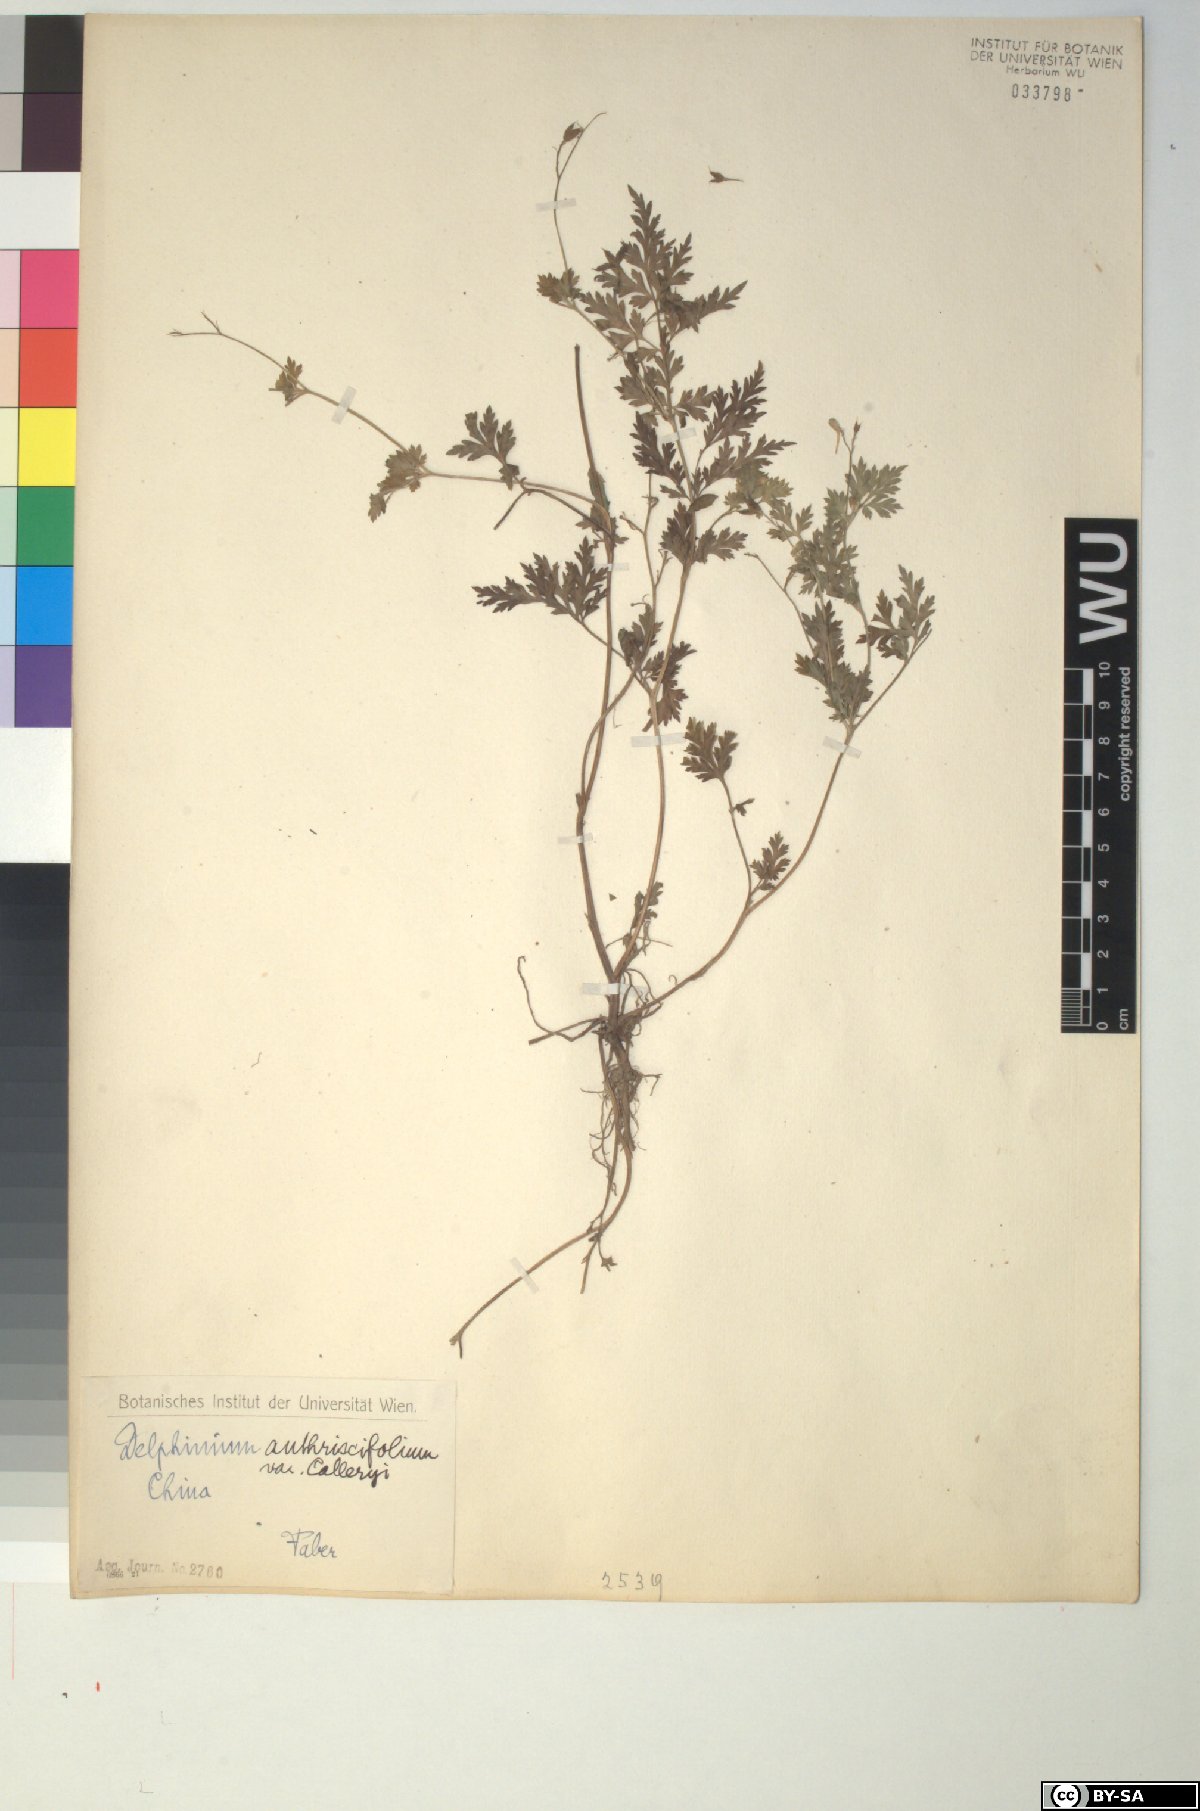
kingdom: Plantae
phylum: Tracheophyta
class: Magnoliopsida
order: Ranunculales
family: Ranunculaceae
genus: Delphinium
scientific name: Delphinium anthriscifolium
